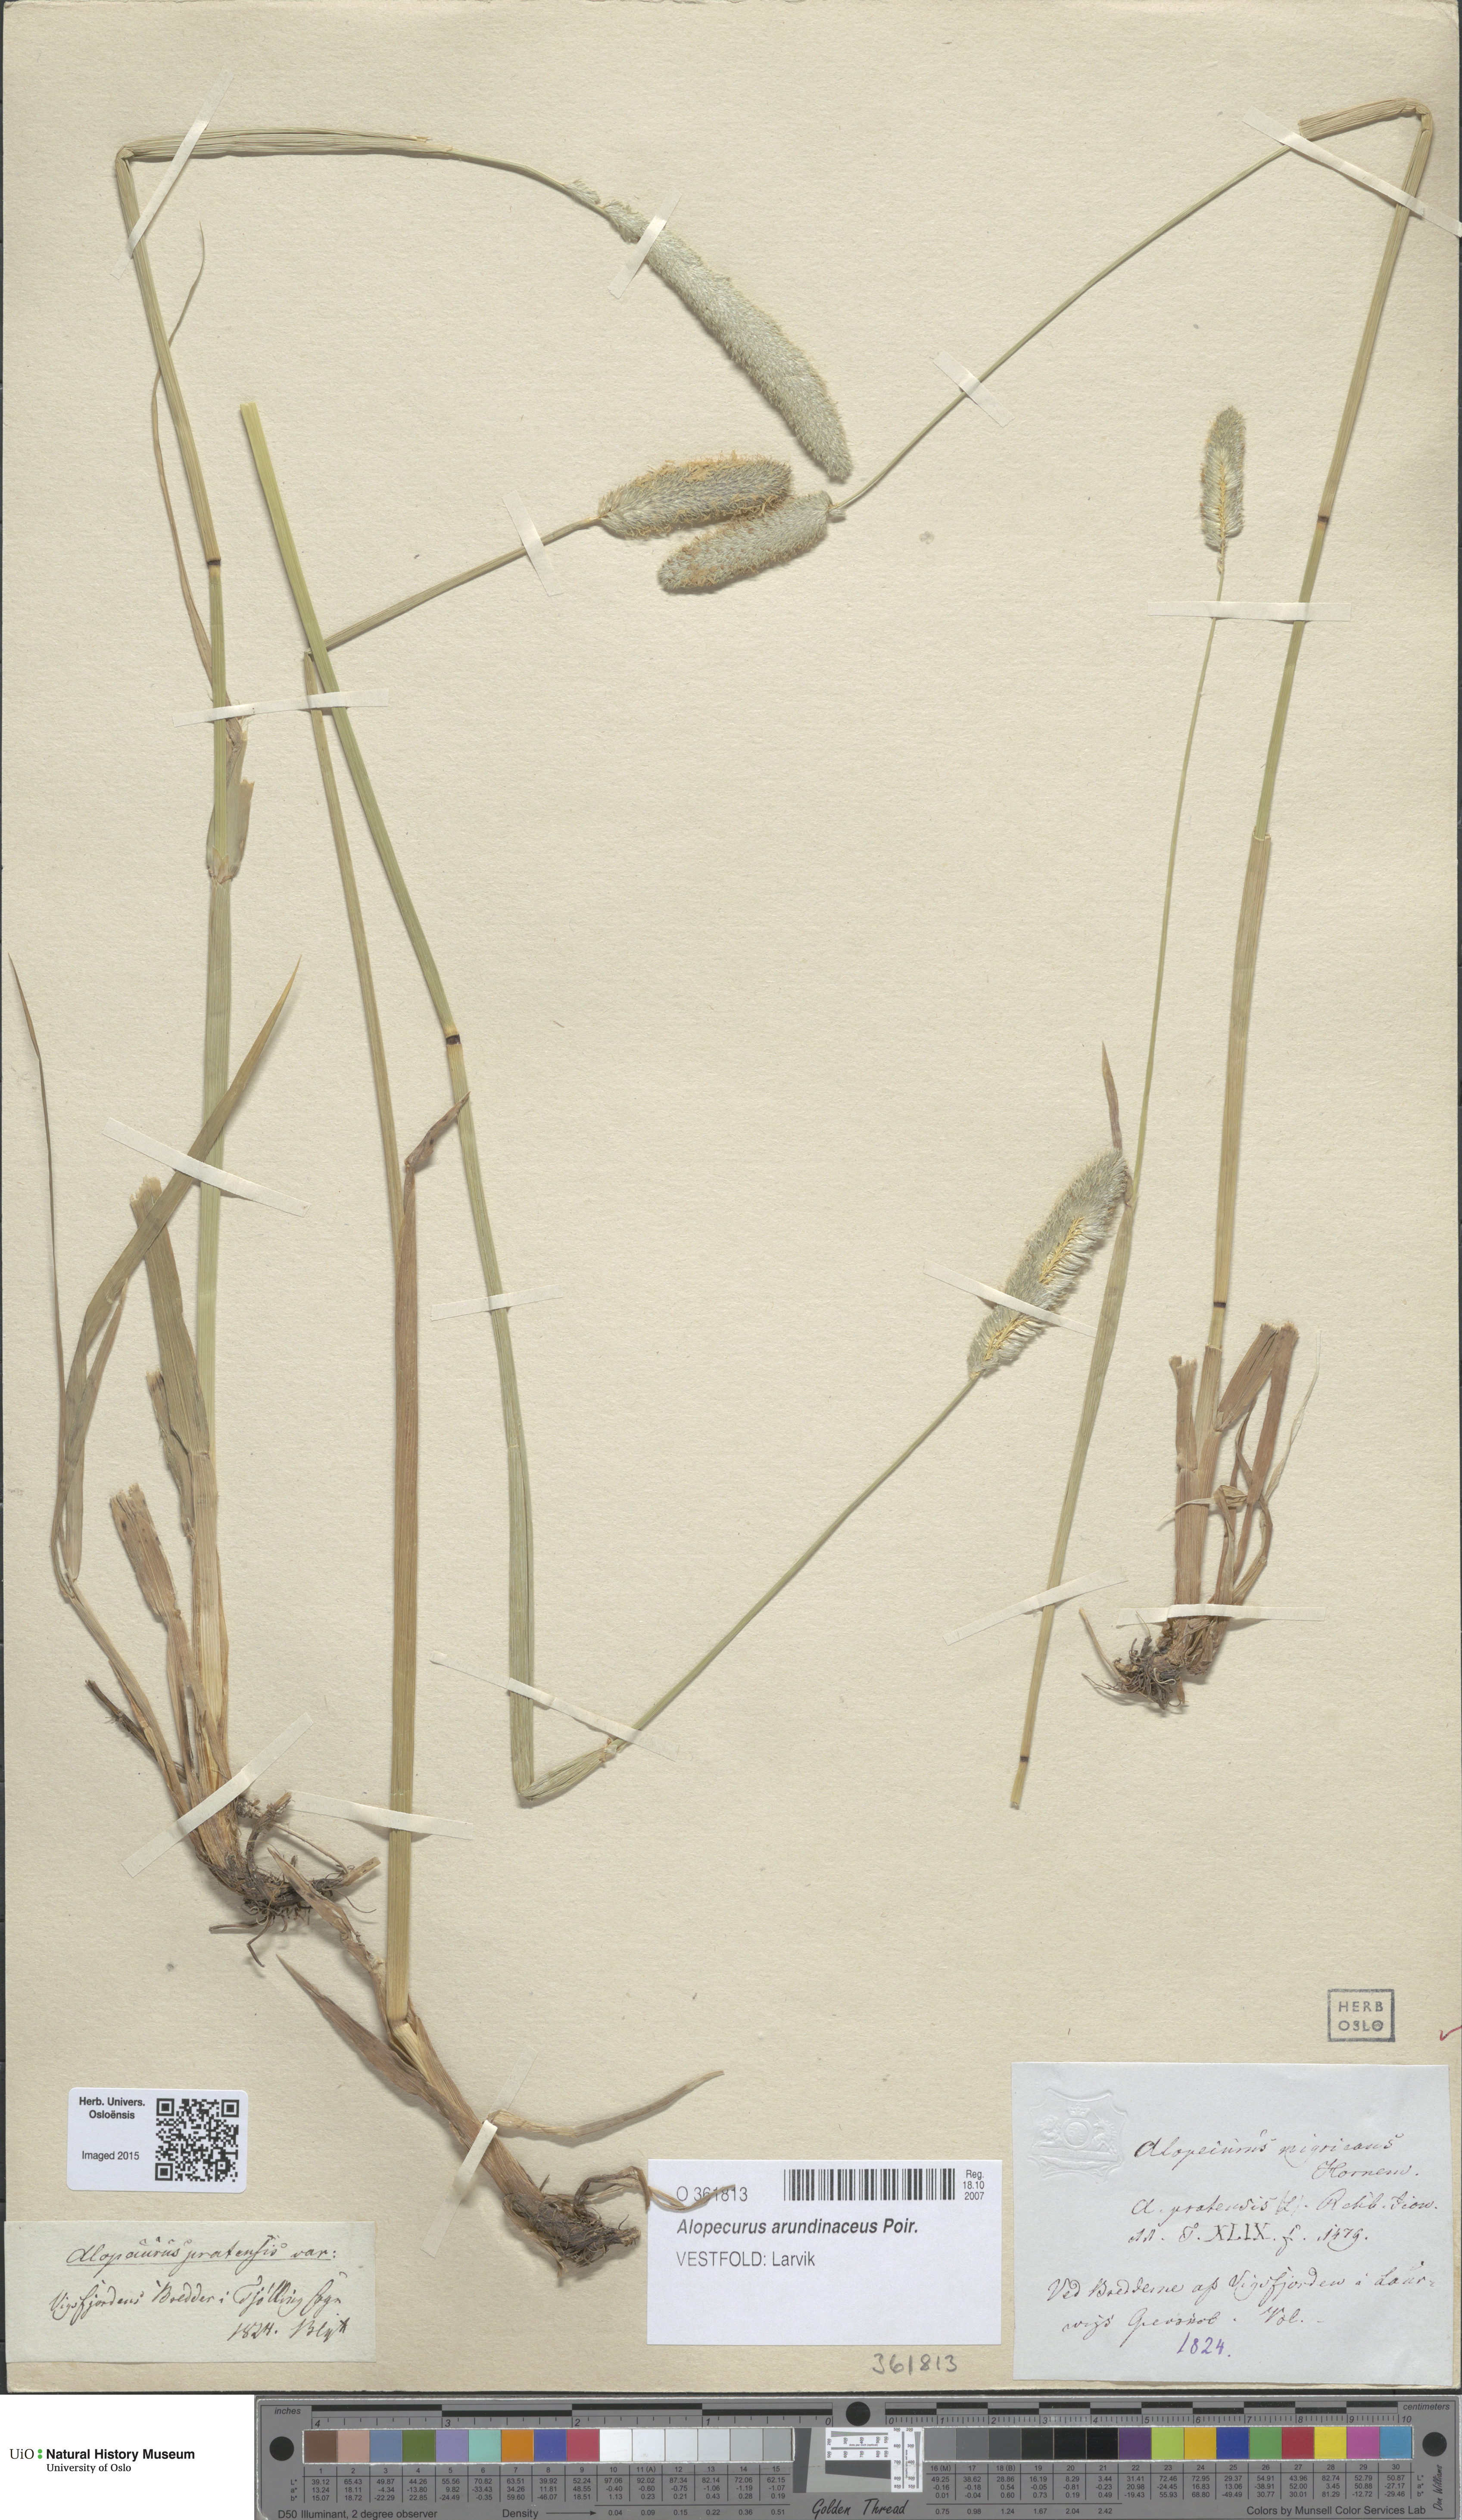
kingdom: Plantae
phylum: Tracheophyta
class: Liliopsida
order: Poales
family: Poaceae
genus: Alopecurus
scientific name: Alopecurus arundinaceus
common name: Creeping meadow foxtail
